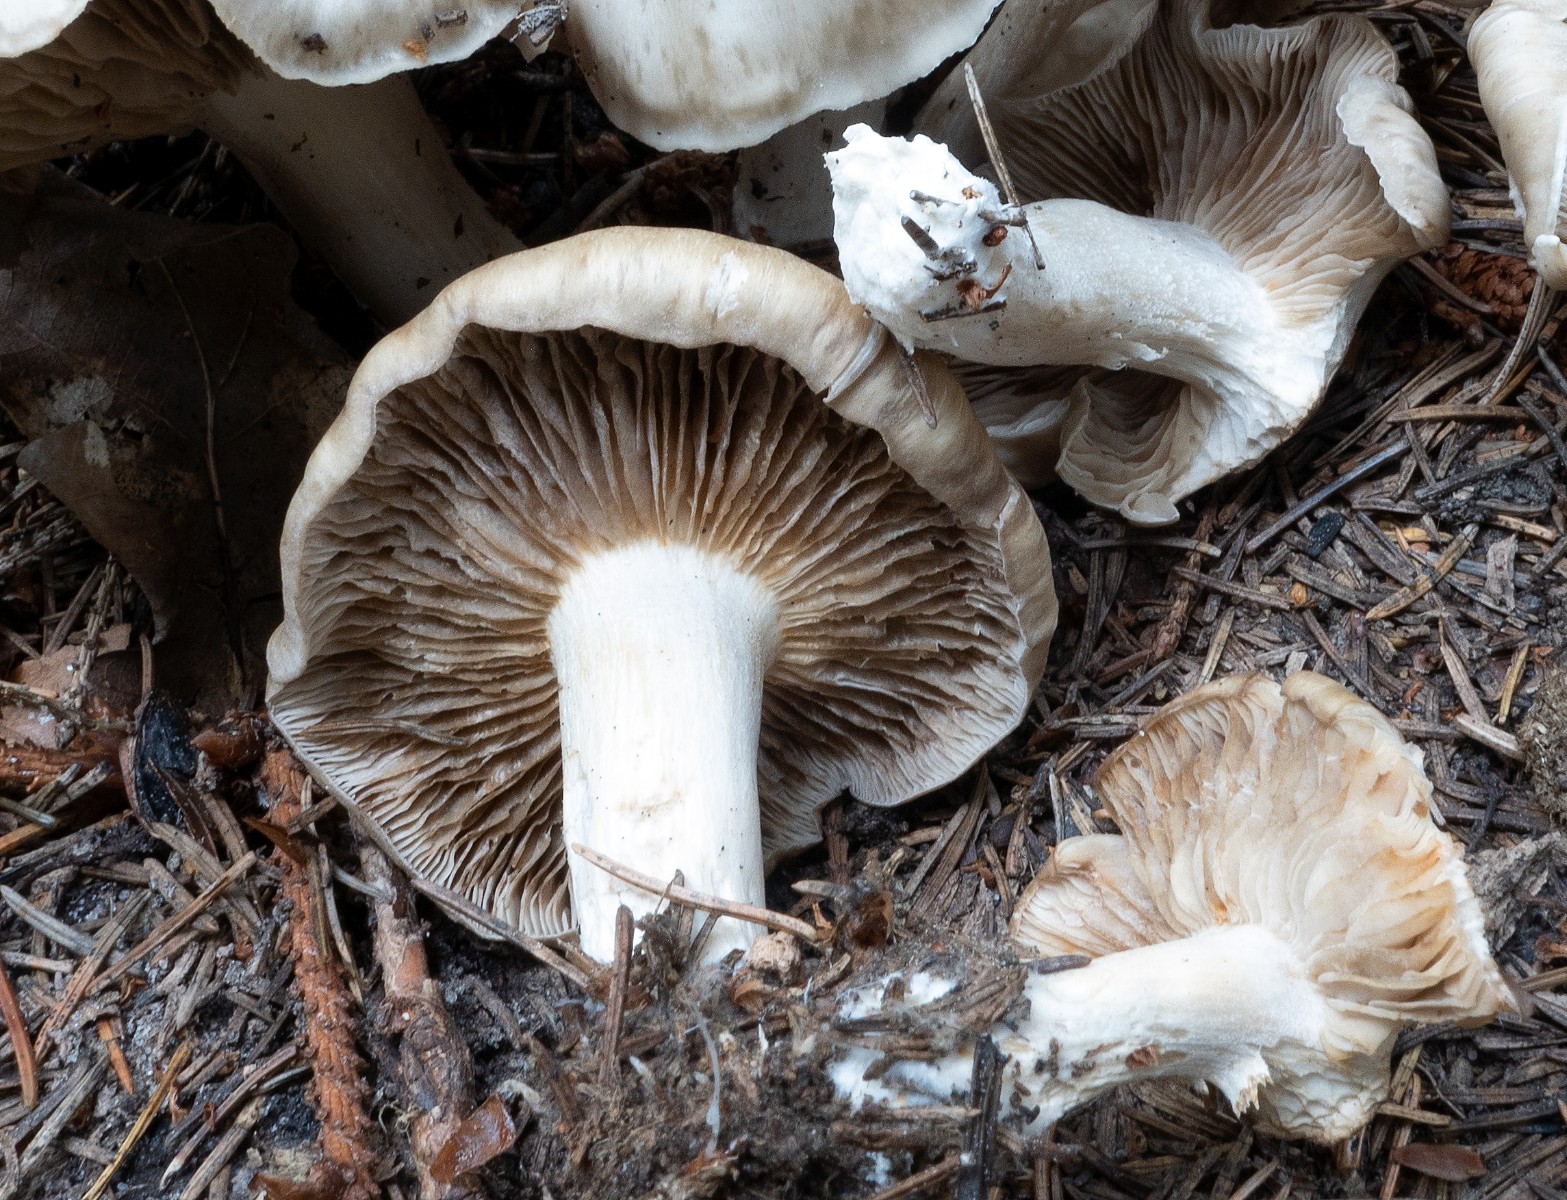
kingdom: Fungi
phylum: Basidiomycota
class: Agaricomycetes
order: Agaricales
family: Lyophyllaceae
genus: Lyophyllum
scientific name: Lyophyllum
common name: gråblad
